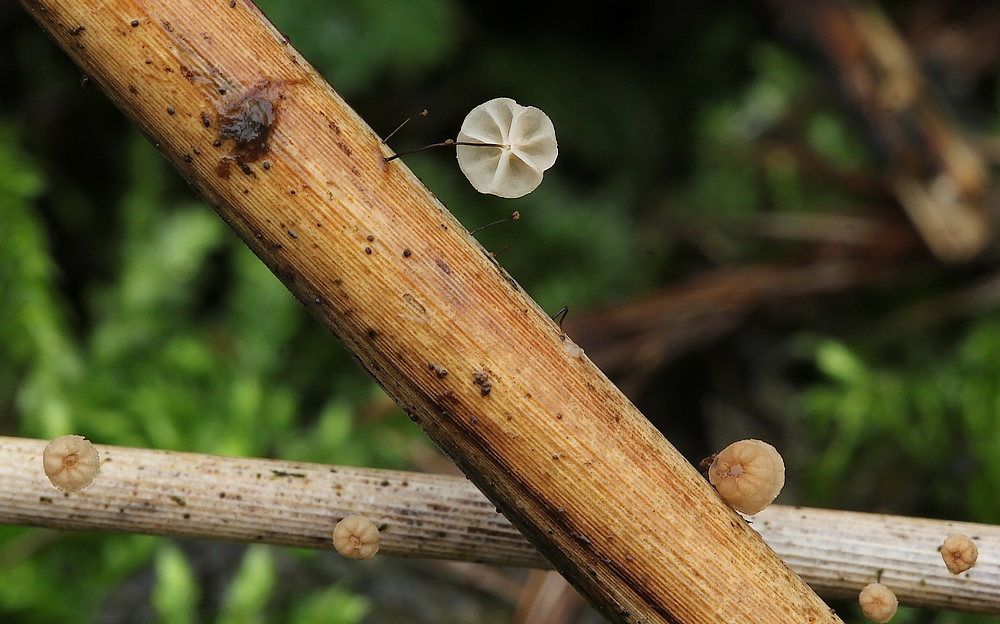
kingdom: Fungi
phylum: Basidiomycota
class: Agaricomycetes
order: Agaricales
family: Marasmiaceae
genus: Marasmius
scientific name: Marasmius limosus
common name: kær-bruskhat
